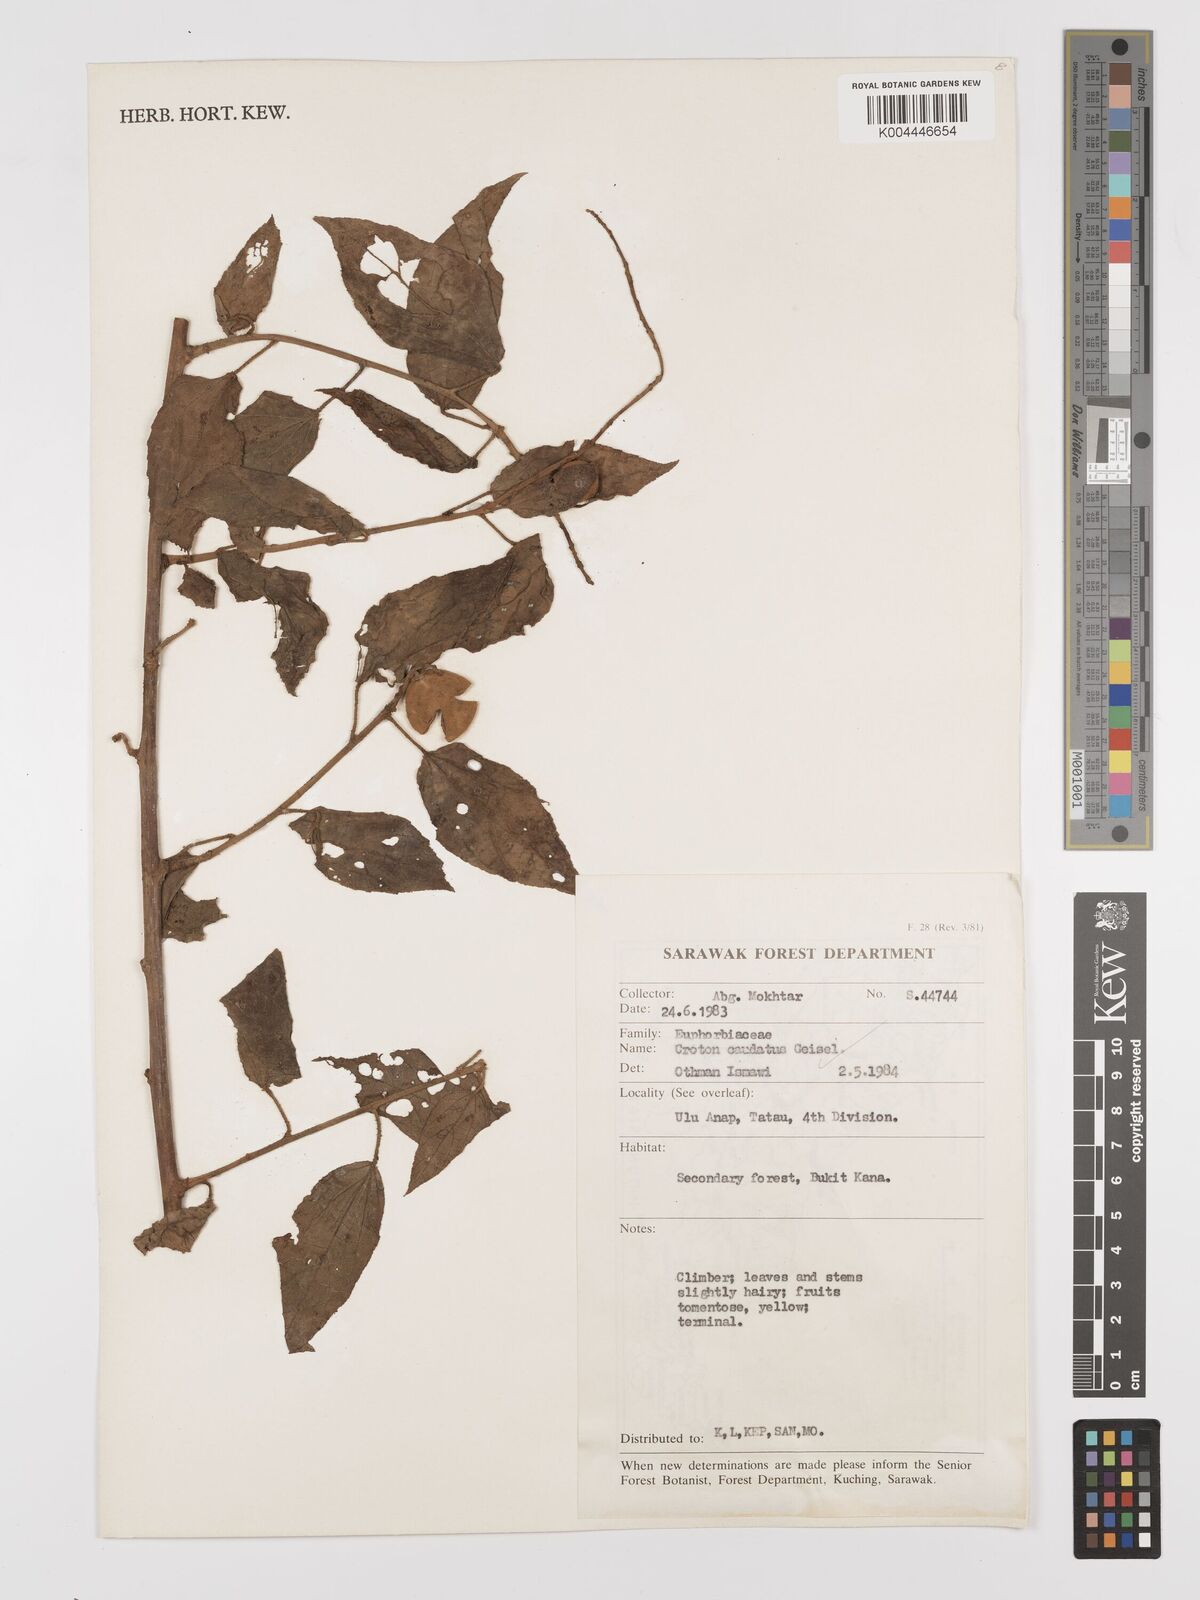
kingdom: Plantae
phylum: Tracheophyta
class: Magnoliopsida
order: Malpighiales
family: Euphorbiaceae
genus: Croton
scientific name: Croton caudatus
